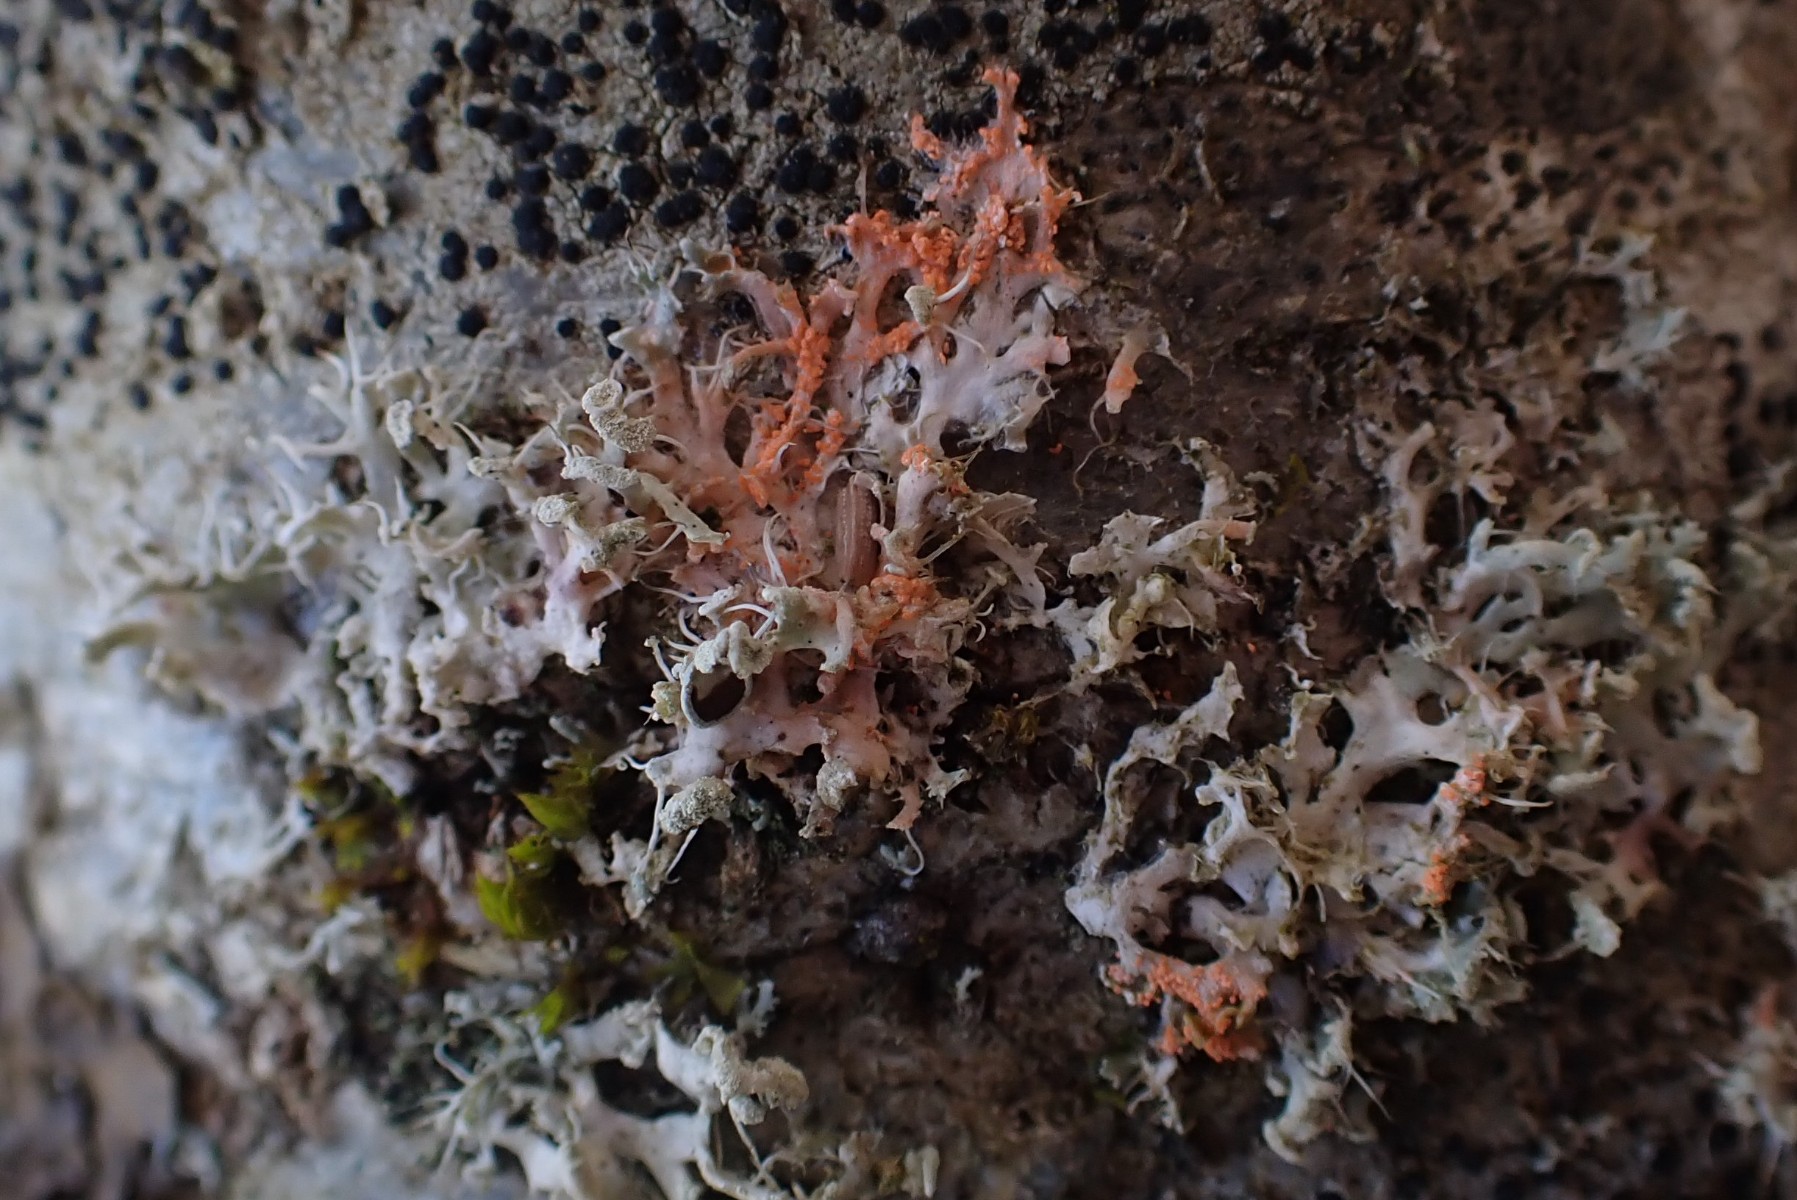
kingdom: Fungi
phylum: Basidiomycota
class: Agaricomycetes
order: Corticiales
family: Corticiaceae
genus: Erythricium
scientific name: Erythricium aurantiacum
